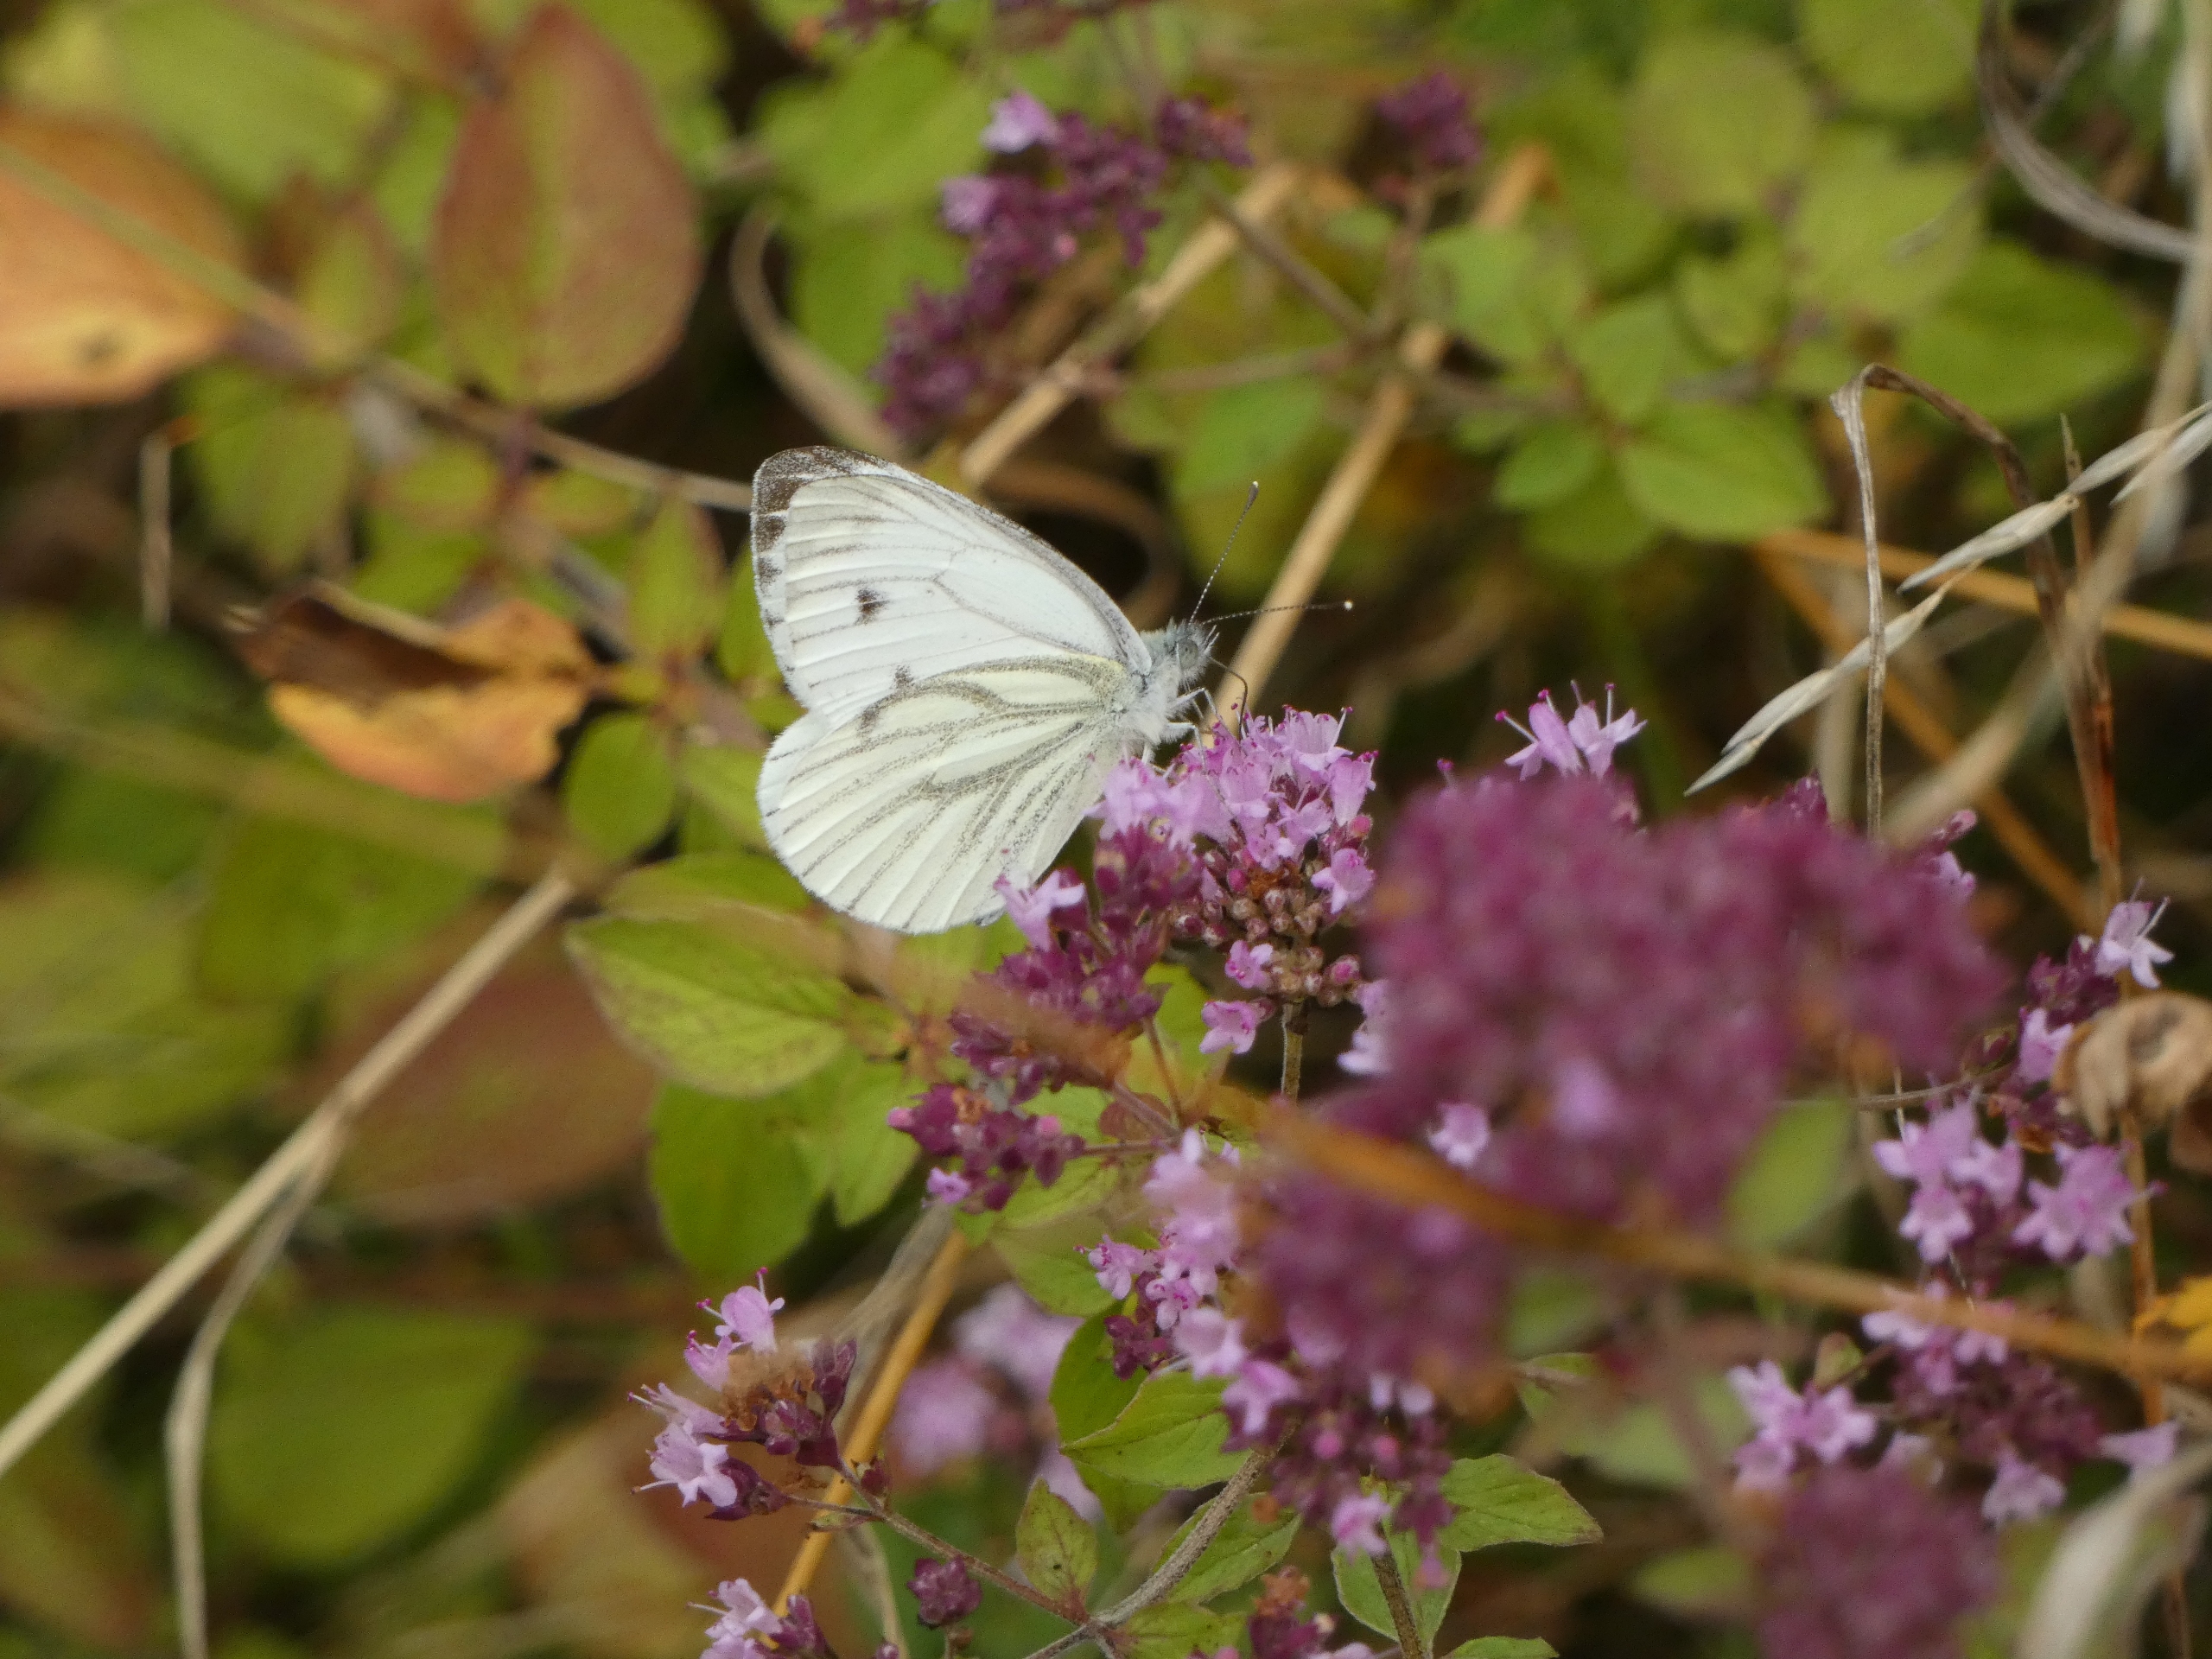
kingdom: Animalia
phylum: Arthropoda
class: Insecta
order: Lepidoptera
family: Pieridae
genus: Pieris
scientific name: Pieris napi
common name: Grønåret kålsommerfugl
